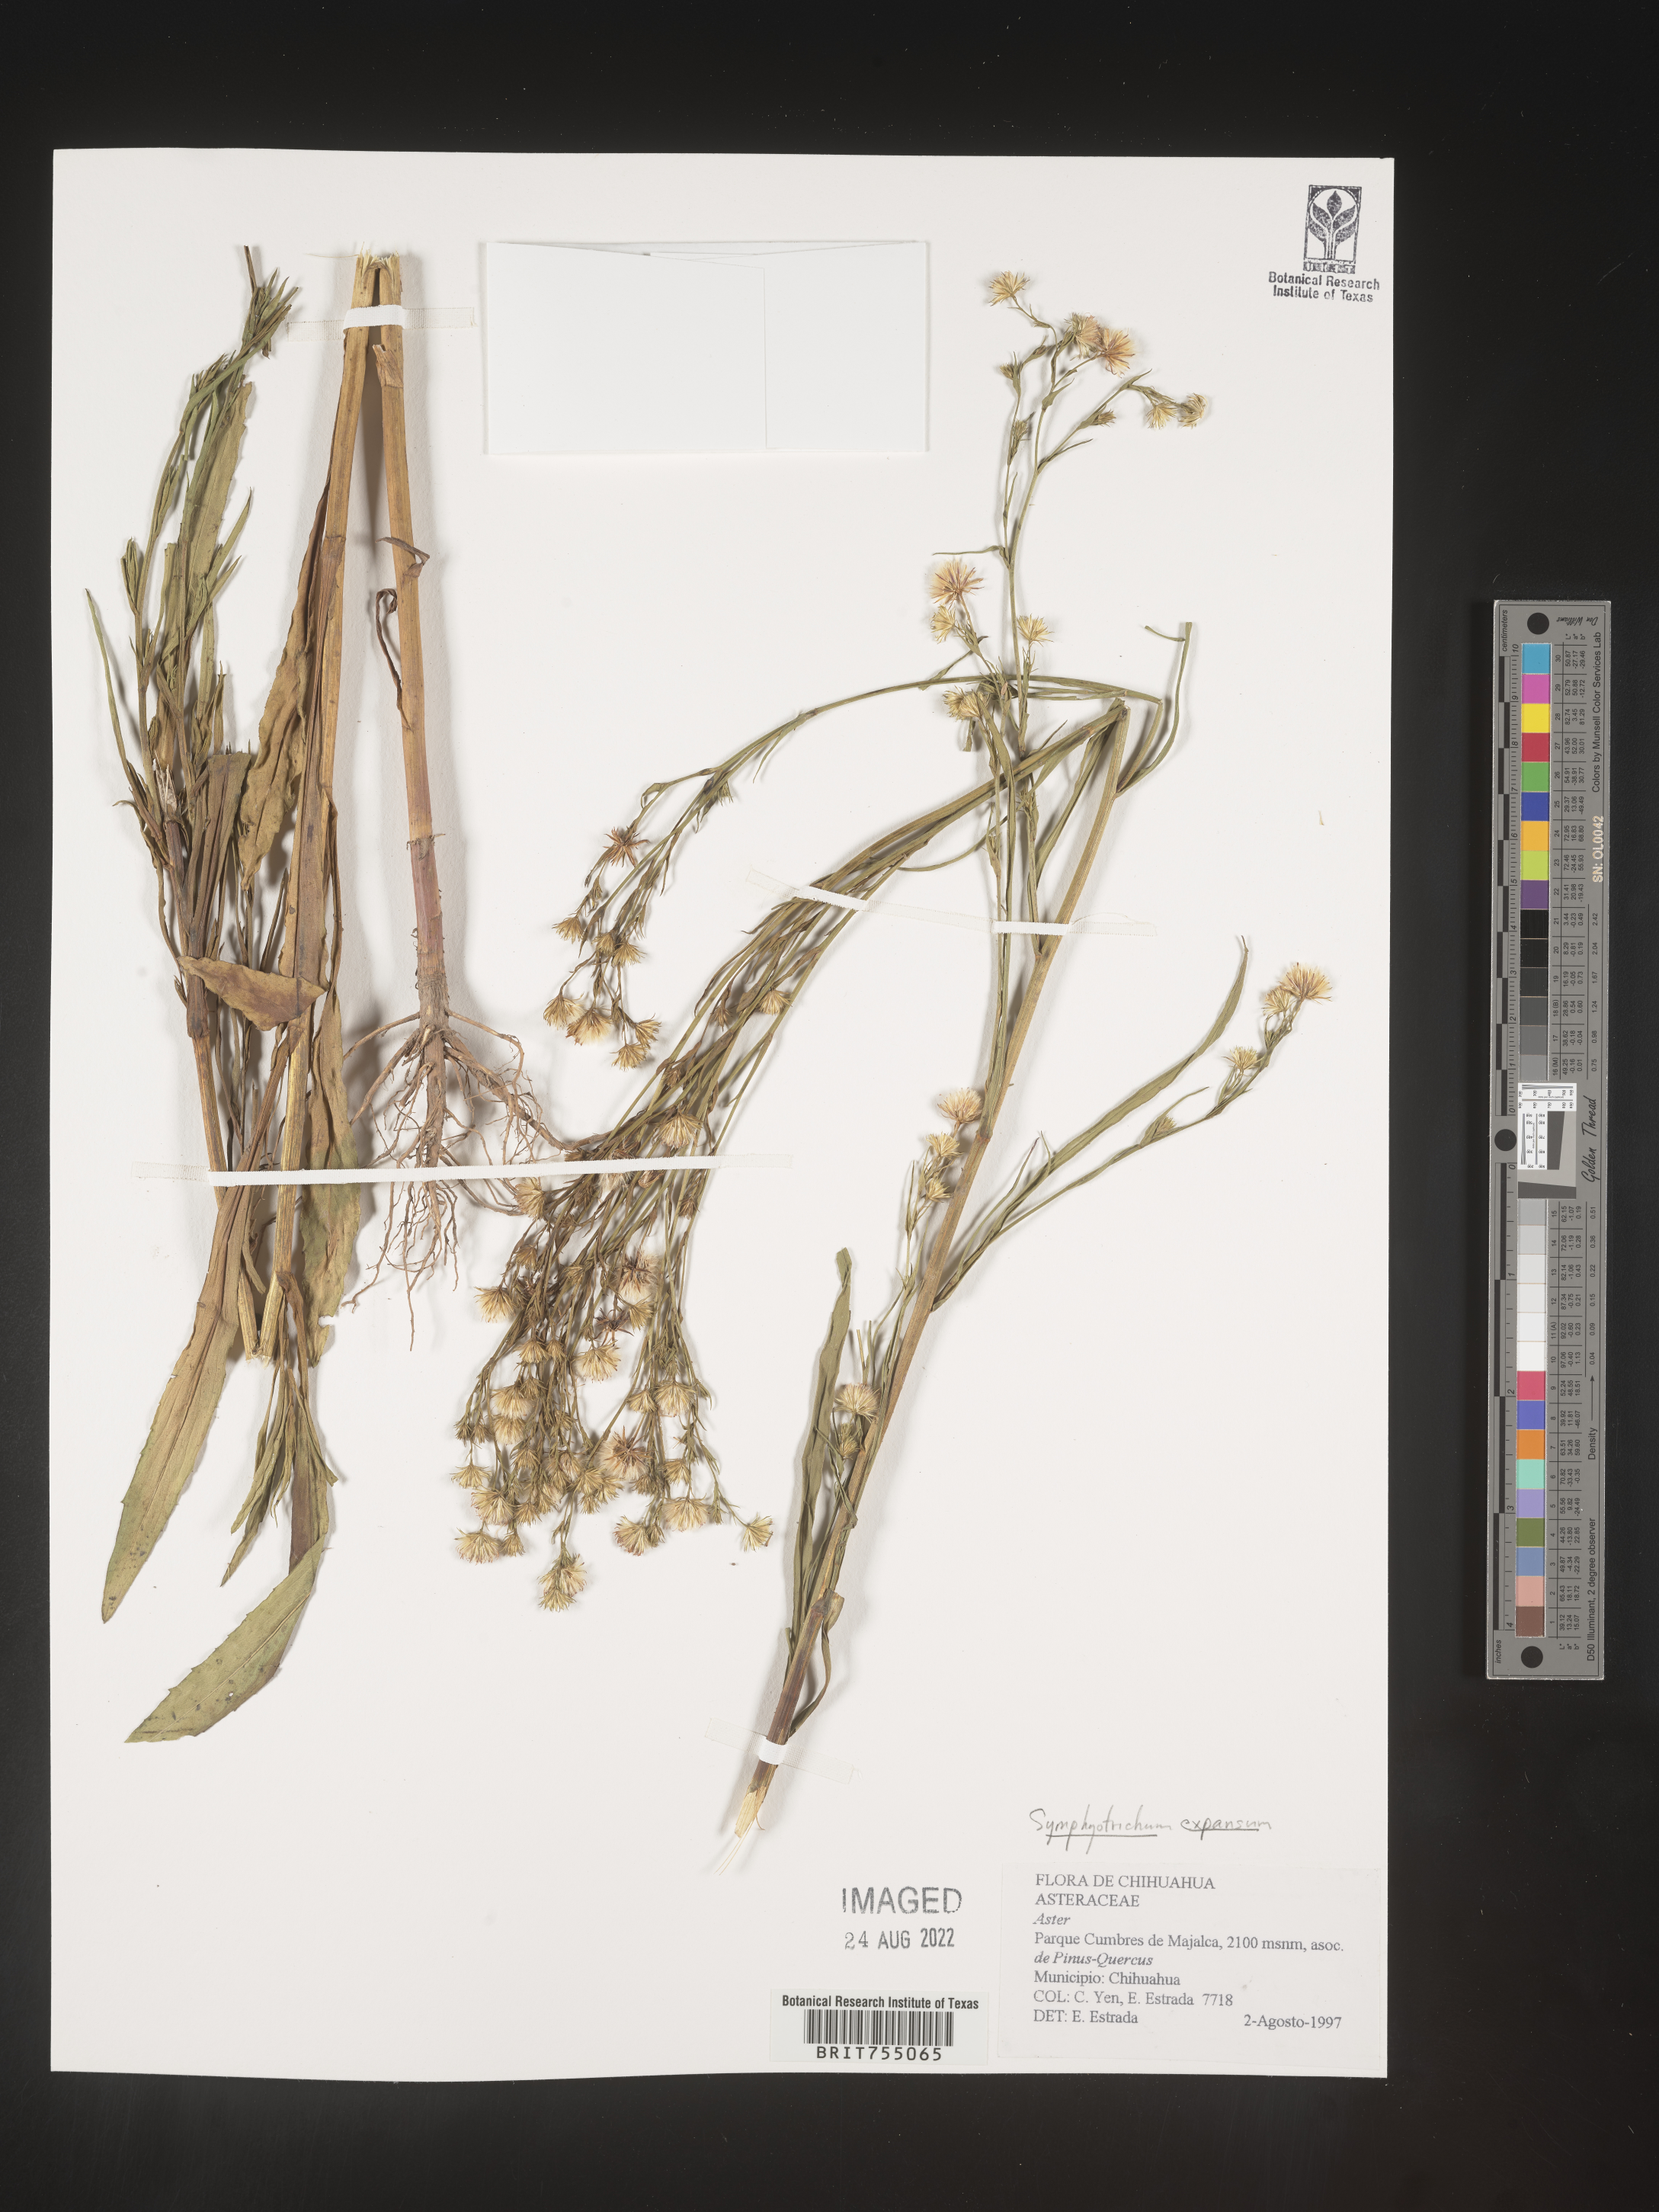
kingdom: Plantae
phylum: Tracheophyta
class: Magnoliopsida
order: Asterales
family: Asteraceae
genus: Symphyotrichum
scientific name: Symphyotrichum expansum
